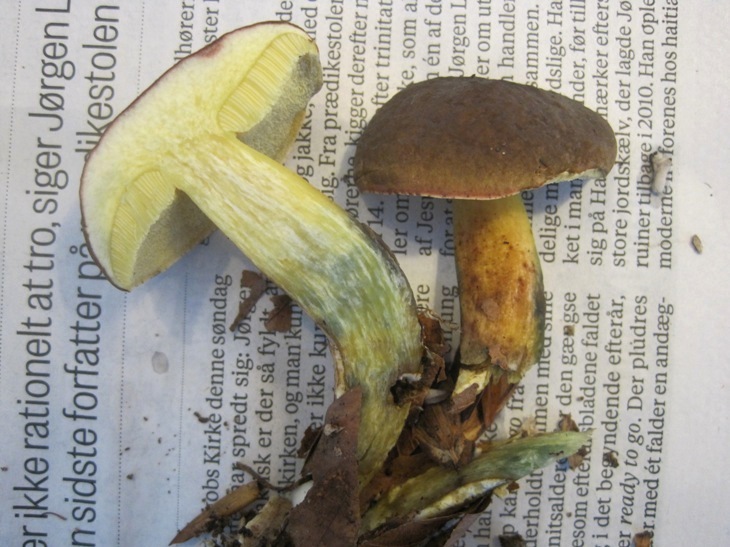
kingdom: Fungi
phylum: Basidiomycota
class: Agaricomycetes
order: Boletales
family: Boletaceae
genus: Xerocomellus
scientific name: Xerocomellus pruinatus
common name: dugget rørhat
